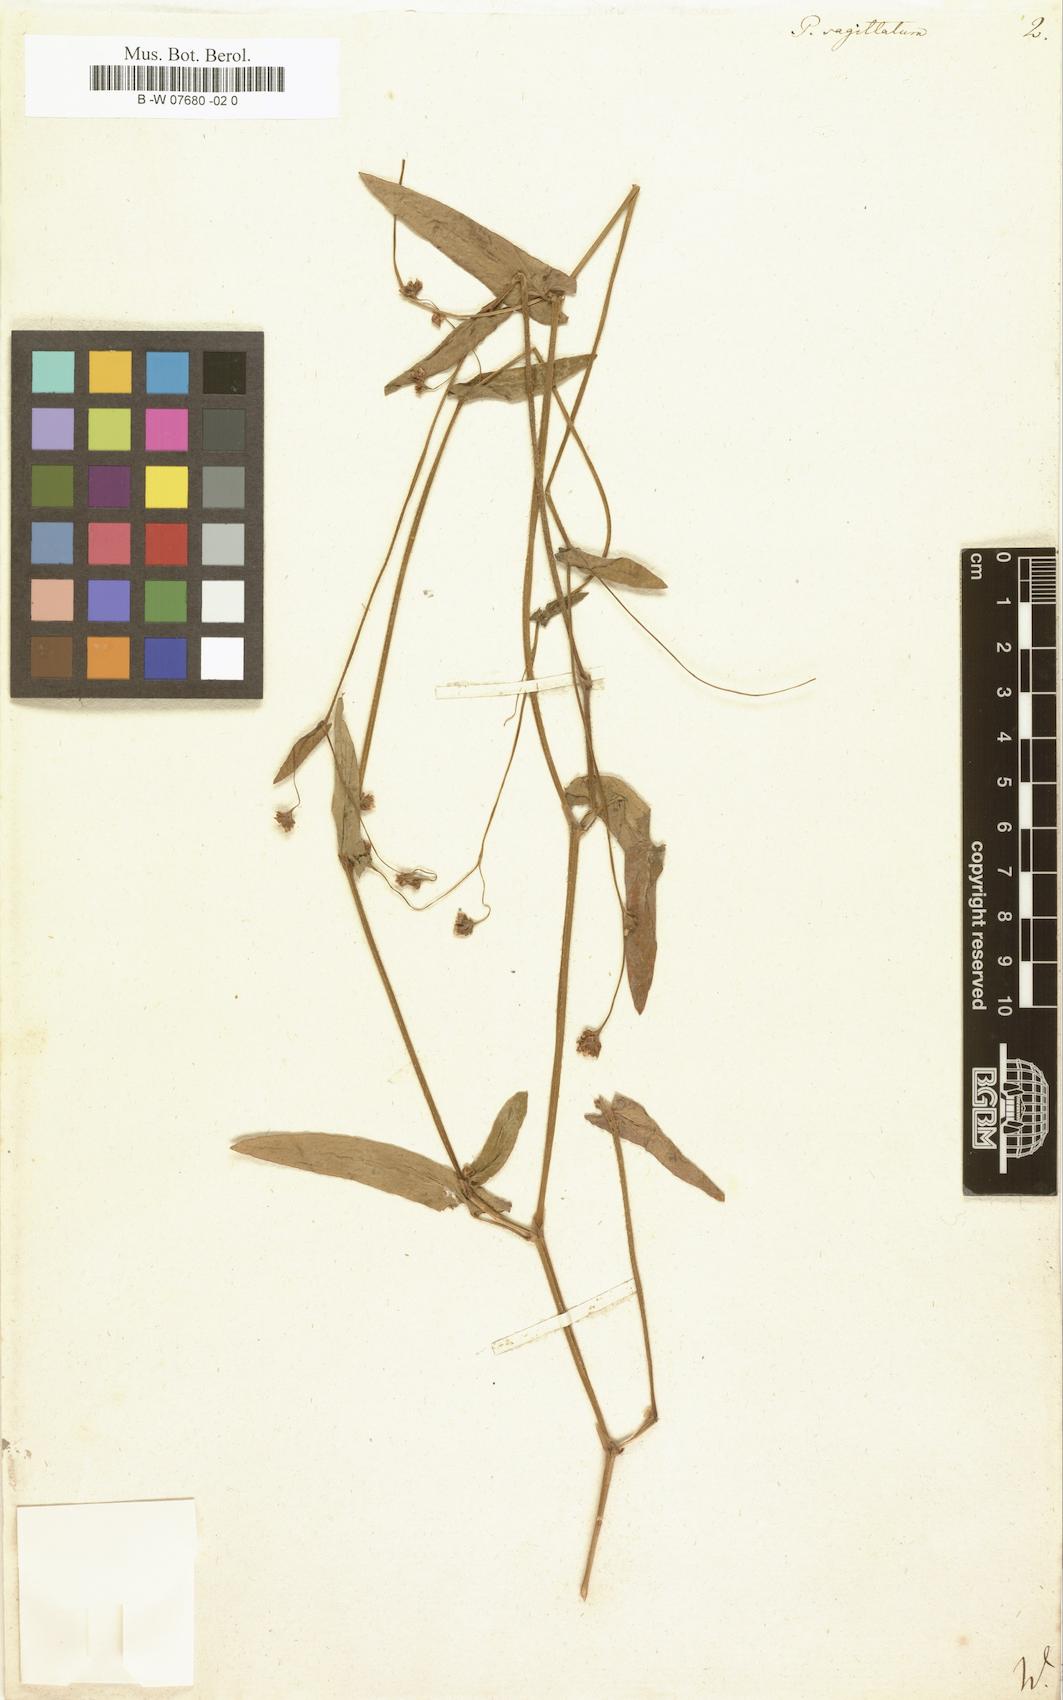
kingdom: Plantae
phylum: Tracheophyta
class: Magnoliopsida
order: Caryophyllales
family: Polygonaceae
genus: Polygonum
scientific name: Polygonum sagittatum
